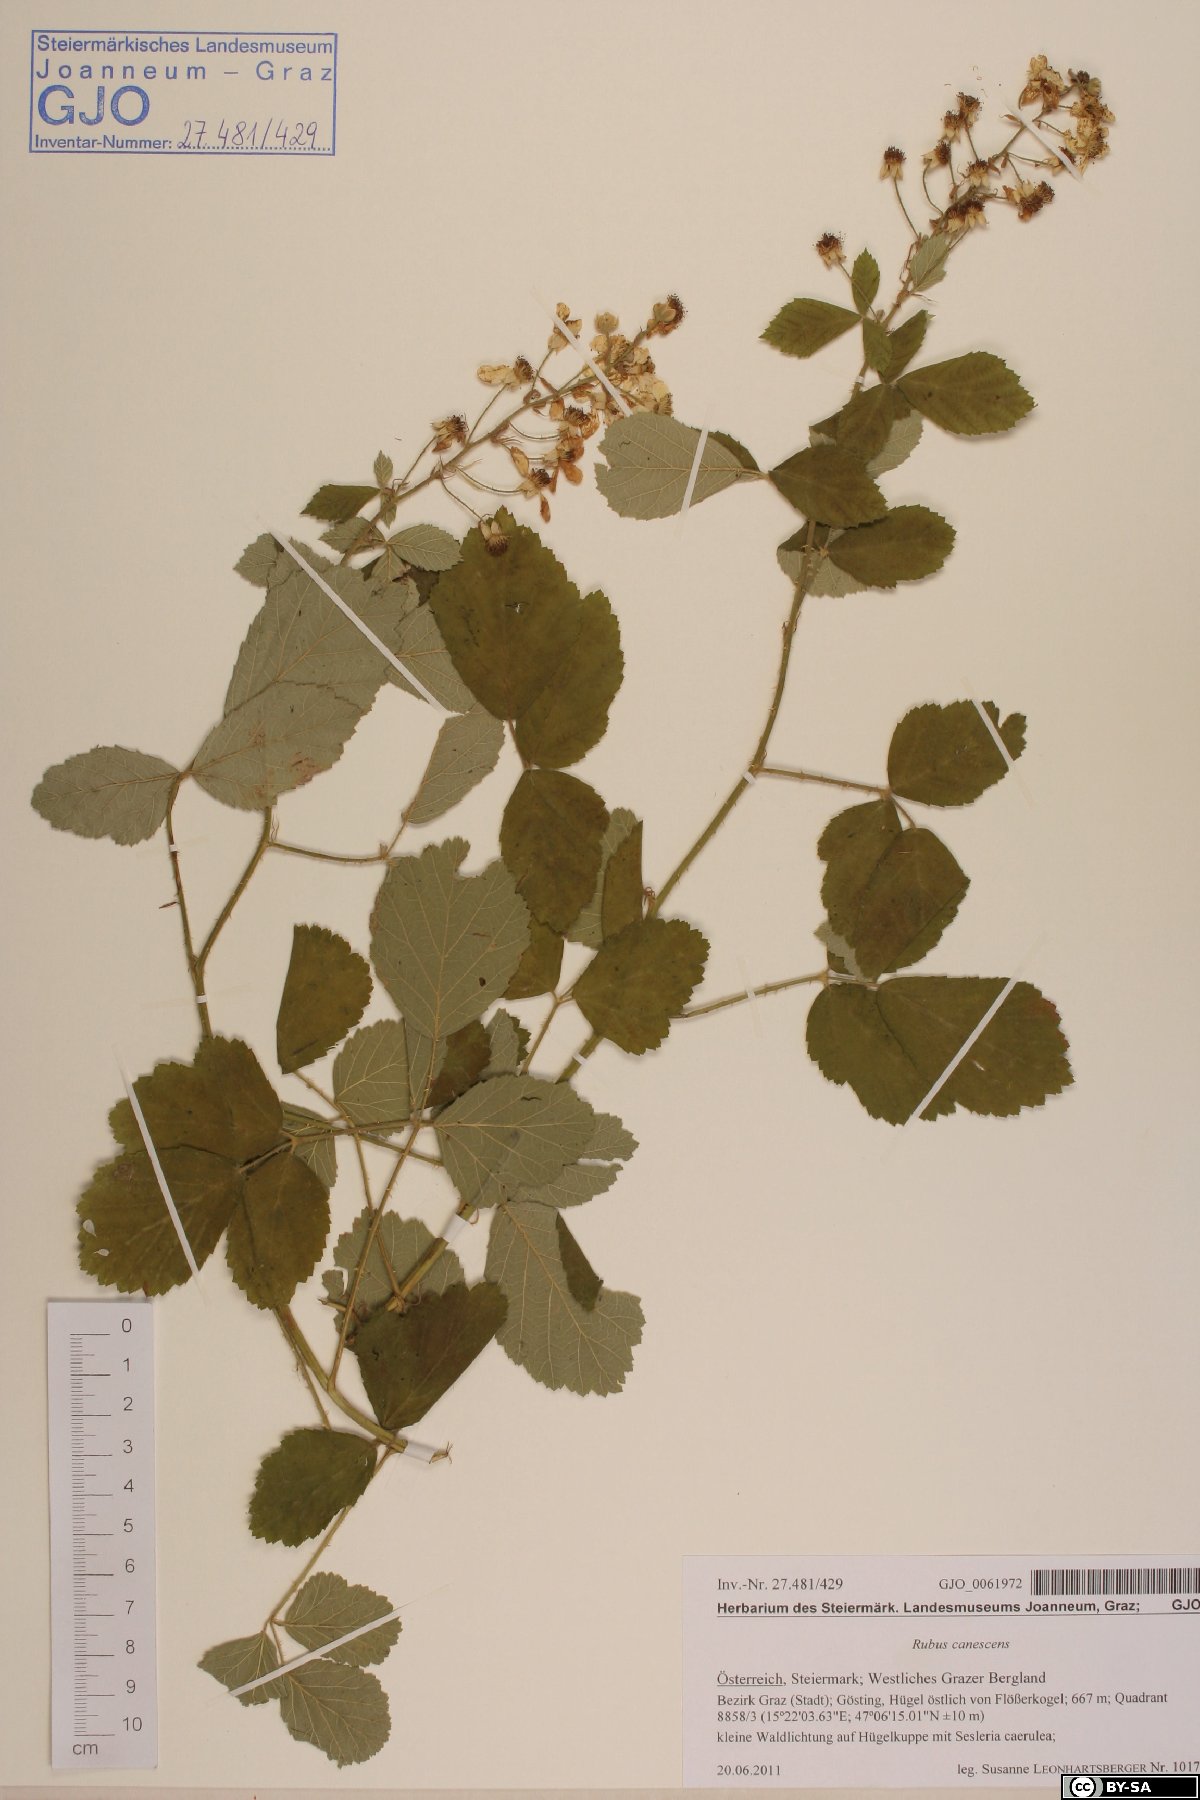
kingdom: Plantae
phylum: Tracheophyta
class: Magnoliopsida
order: Rosales
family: Rosaceae
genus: Rubus
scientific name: Rubus canescens
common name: Wooly blackberry
